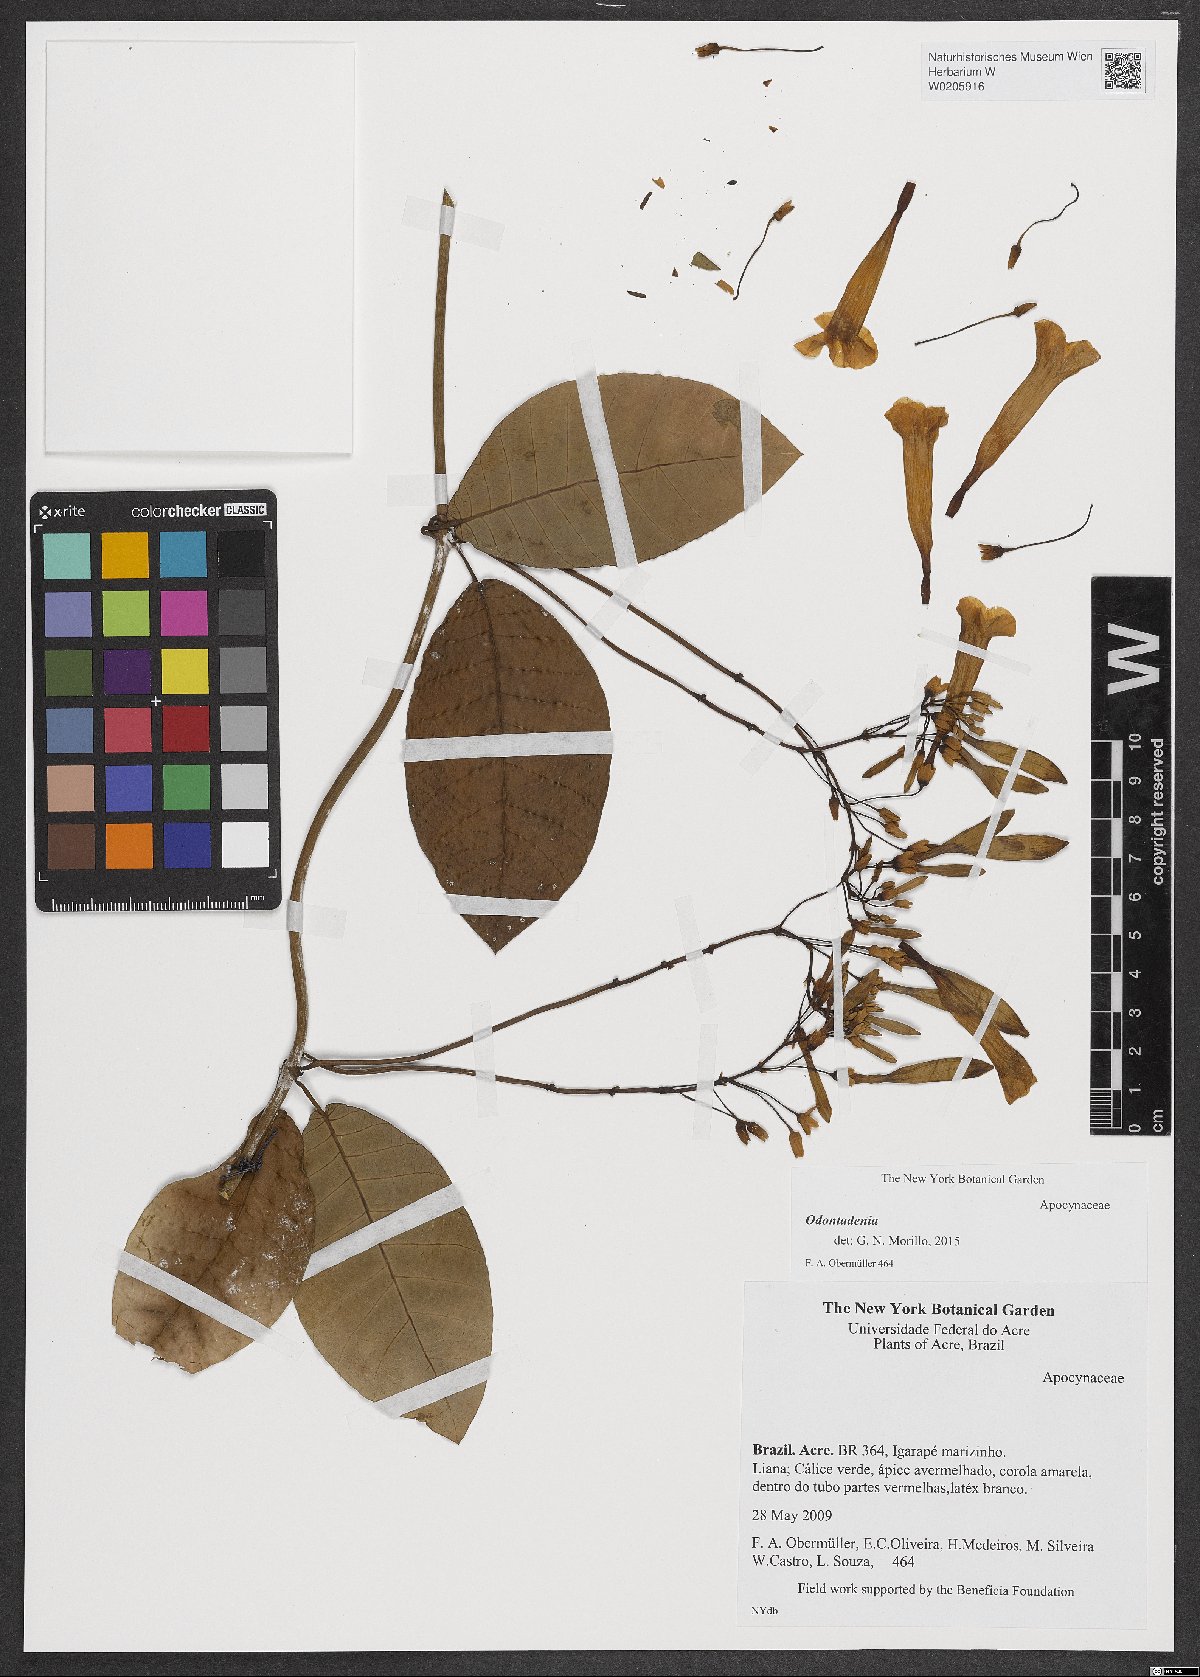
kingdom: Plantae
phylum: Tracheophyta
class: Magnoliopsida
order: Gentianales
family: Apocynaceae
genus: Odontadenia
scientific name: Odontadenia
